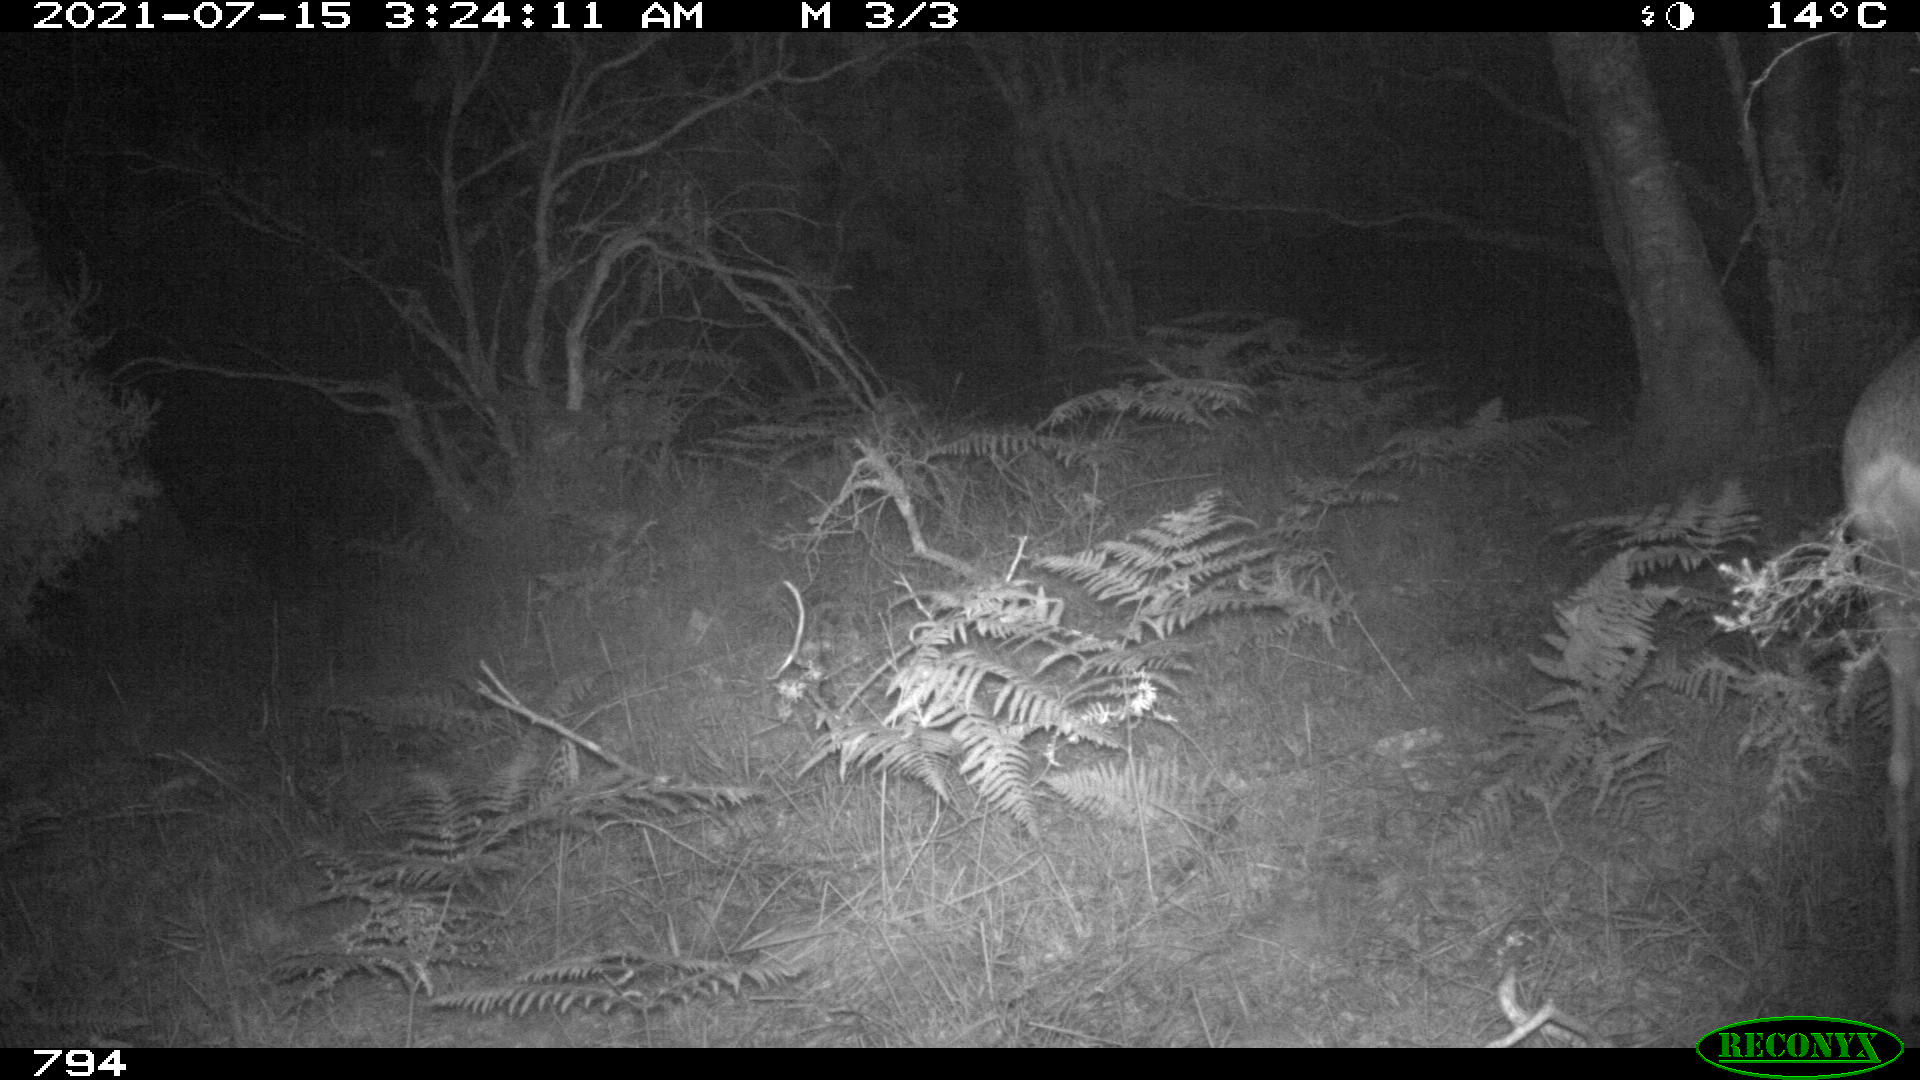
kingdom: Animalia
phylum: Chordata
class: Mammalia
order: Artiodactyla
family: Cervidae
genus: Capreolus
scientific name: Capreolus capreolus
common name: Western roe deer
